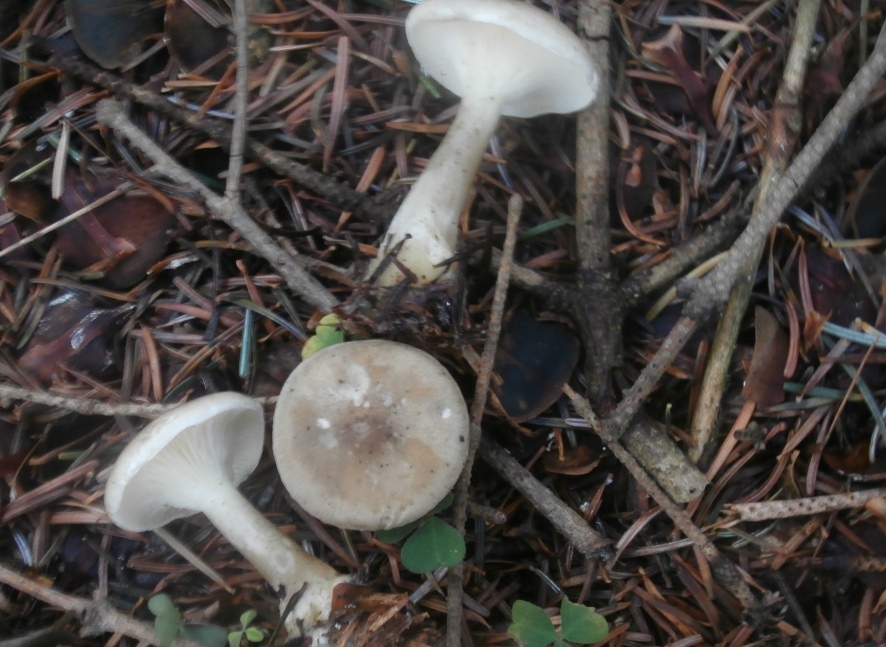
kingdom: Fungi
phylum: Basidiomycota
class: Agaricomycetes
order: Agaricales
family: Hygrophoraceae
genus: Ampulloclitocybe
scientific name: Ampulloclitocybe clavipes
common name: køllefod
